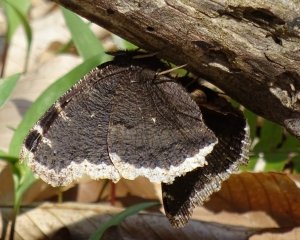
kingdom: Animalia
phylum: Arthropoda
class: Insecta
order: Lepidoptera
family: Nymphalidae
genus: Nymphalis
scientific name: Nymphalis antiopa
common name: Mourning Cloak
